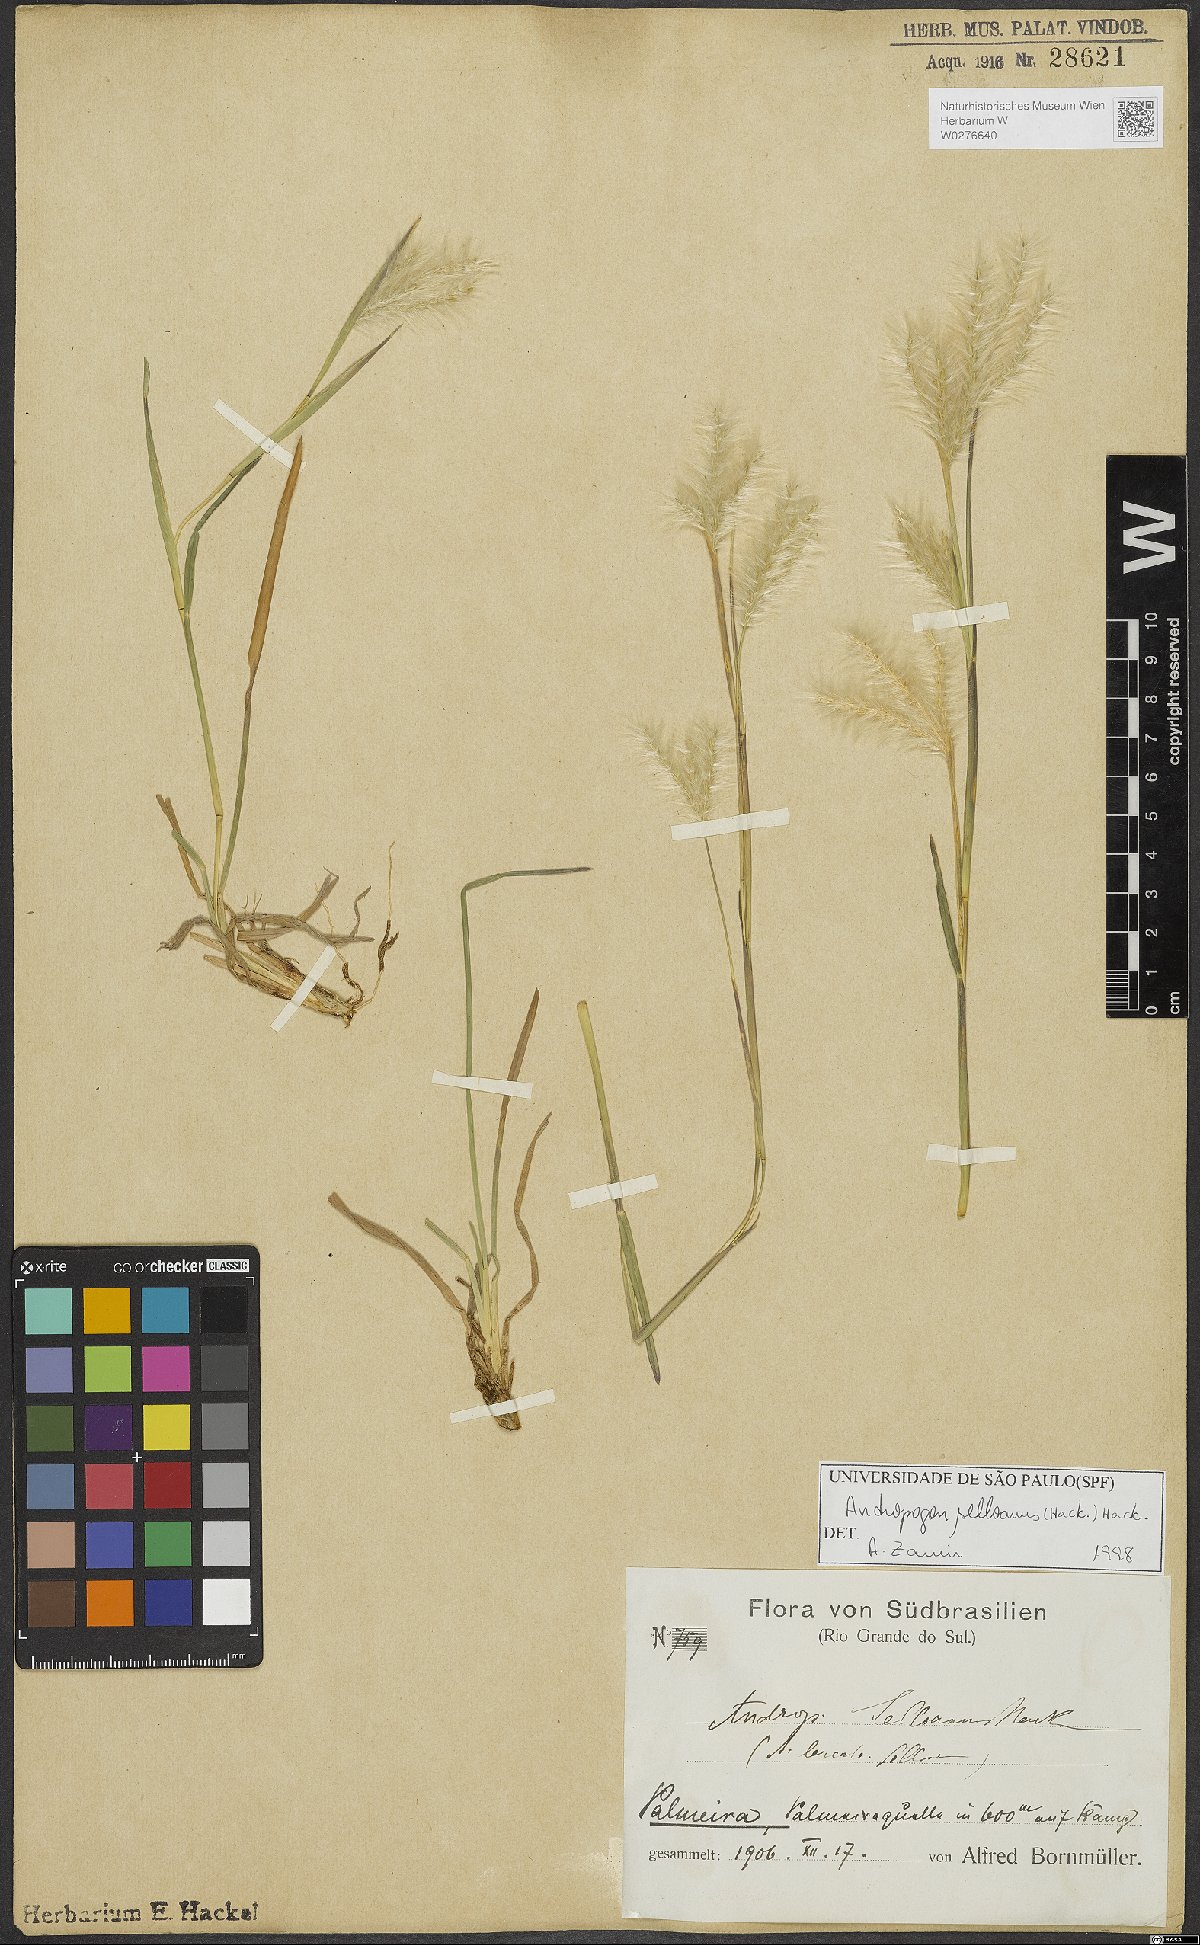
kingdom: Plantae
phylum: Tracheophyta
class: Liliopsida
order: Poales
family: Poaceae
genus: Andropogon
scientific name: Andropogon selloanus
